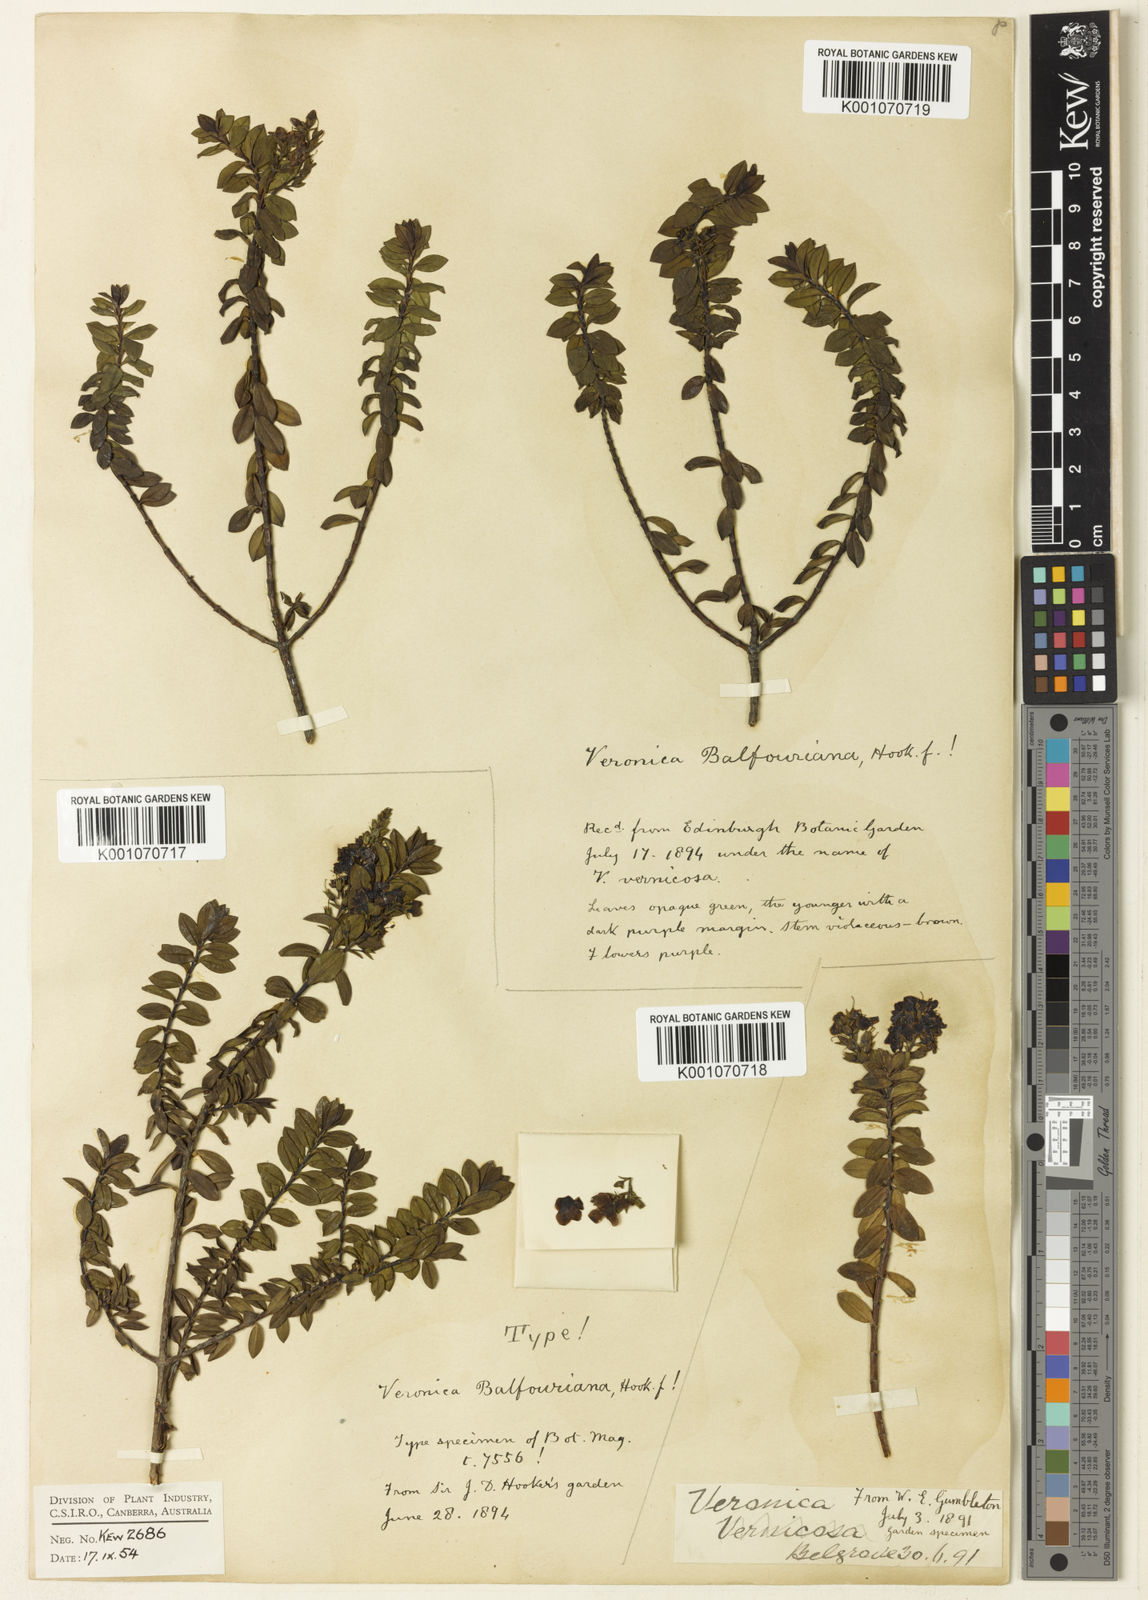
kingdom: Plantae
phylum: Tracheophyta
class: Magnoliopsida
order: Lamiales
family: Plantaginaceae
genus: Veronica
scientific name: Veronica balfouriana
